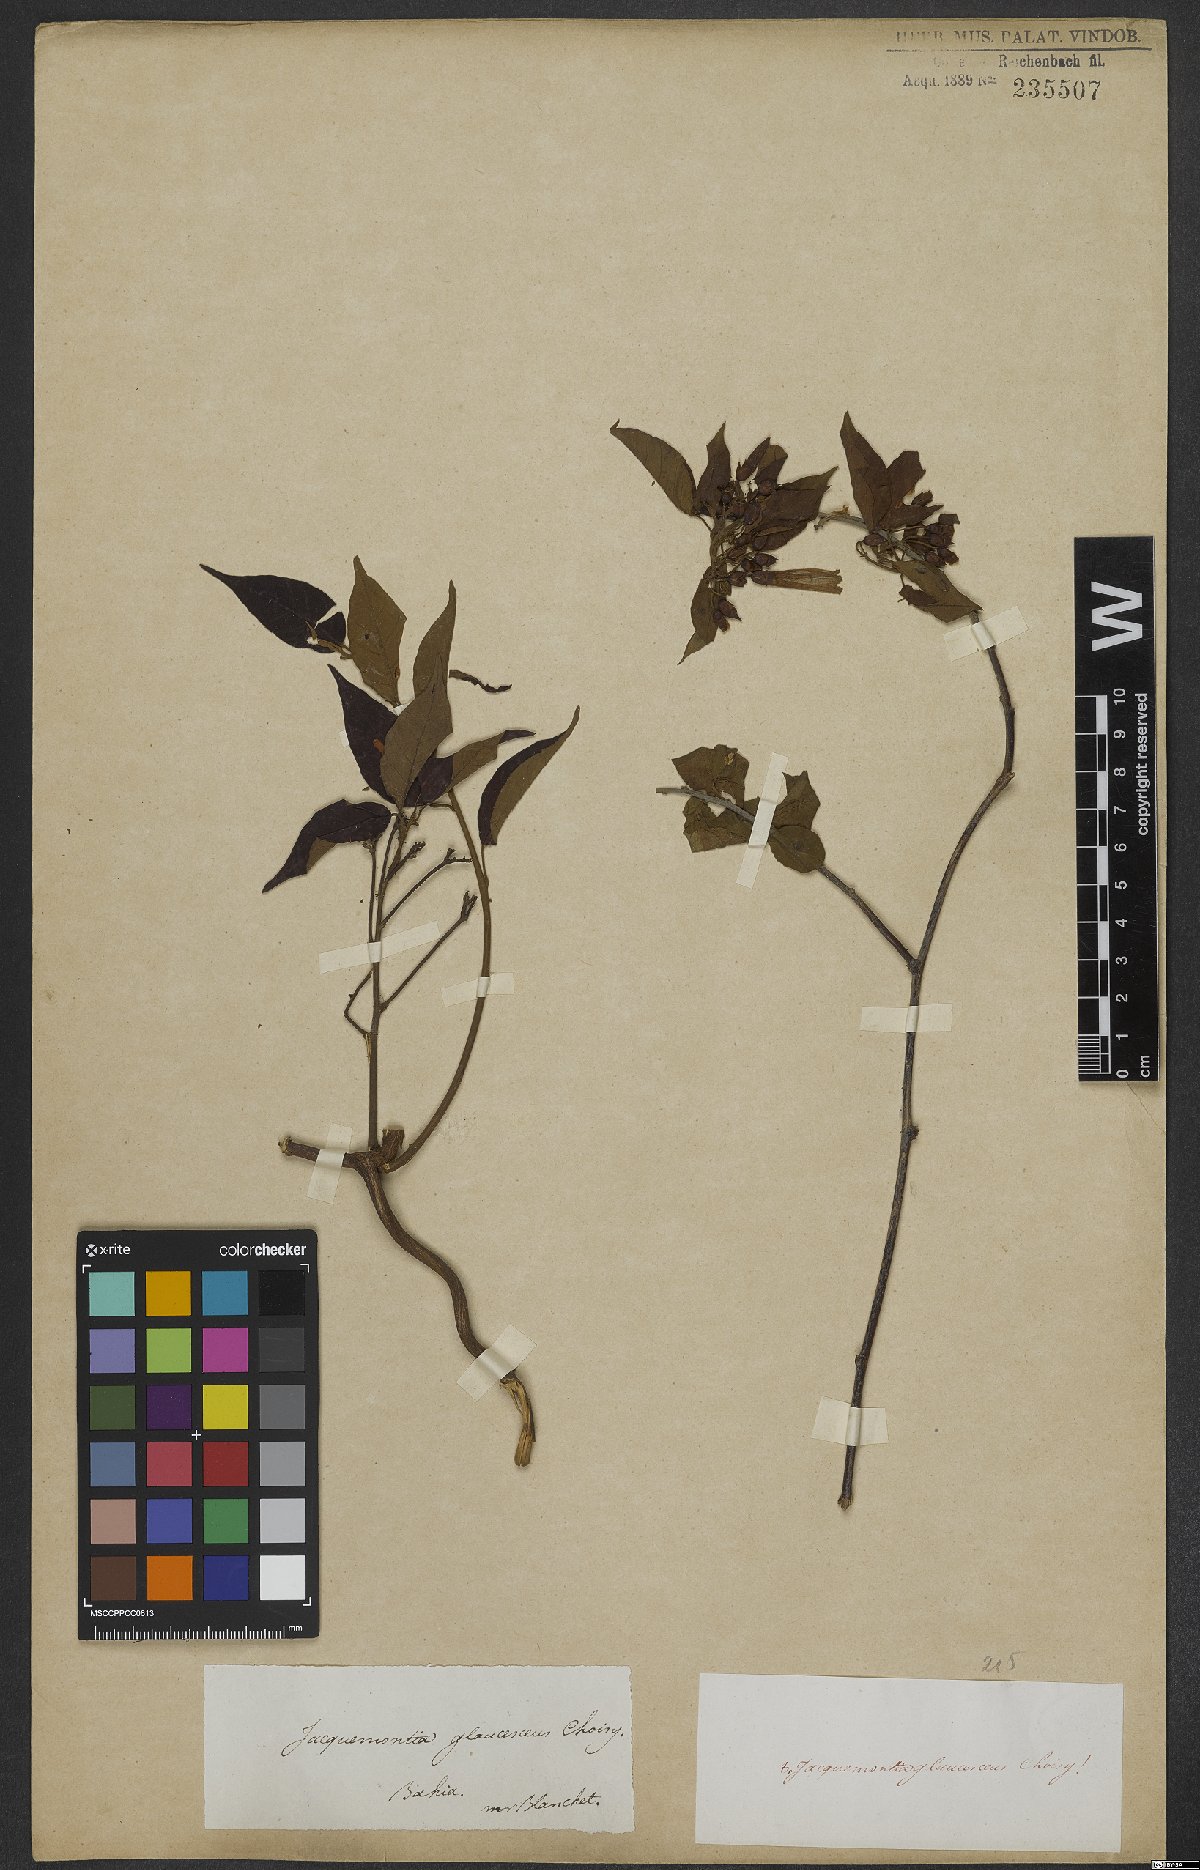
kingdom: Plantae
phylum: Tracheophyta
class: Magnoliopsida
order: Solanales
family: Convolvulaceae
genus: Jacquemontia
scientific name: Jacquemontia glaucescens
